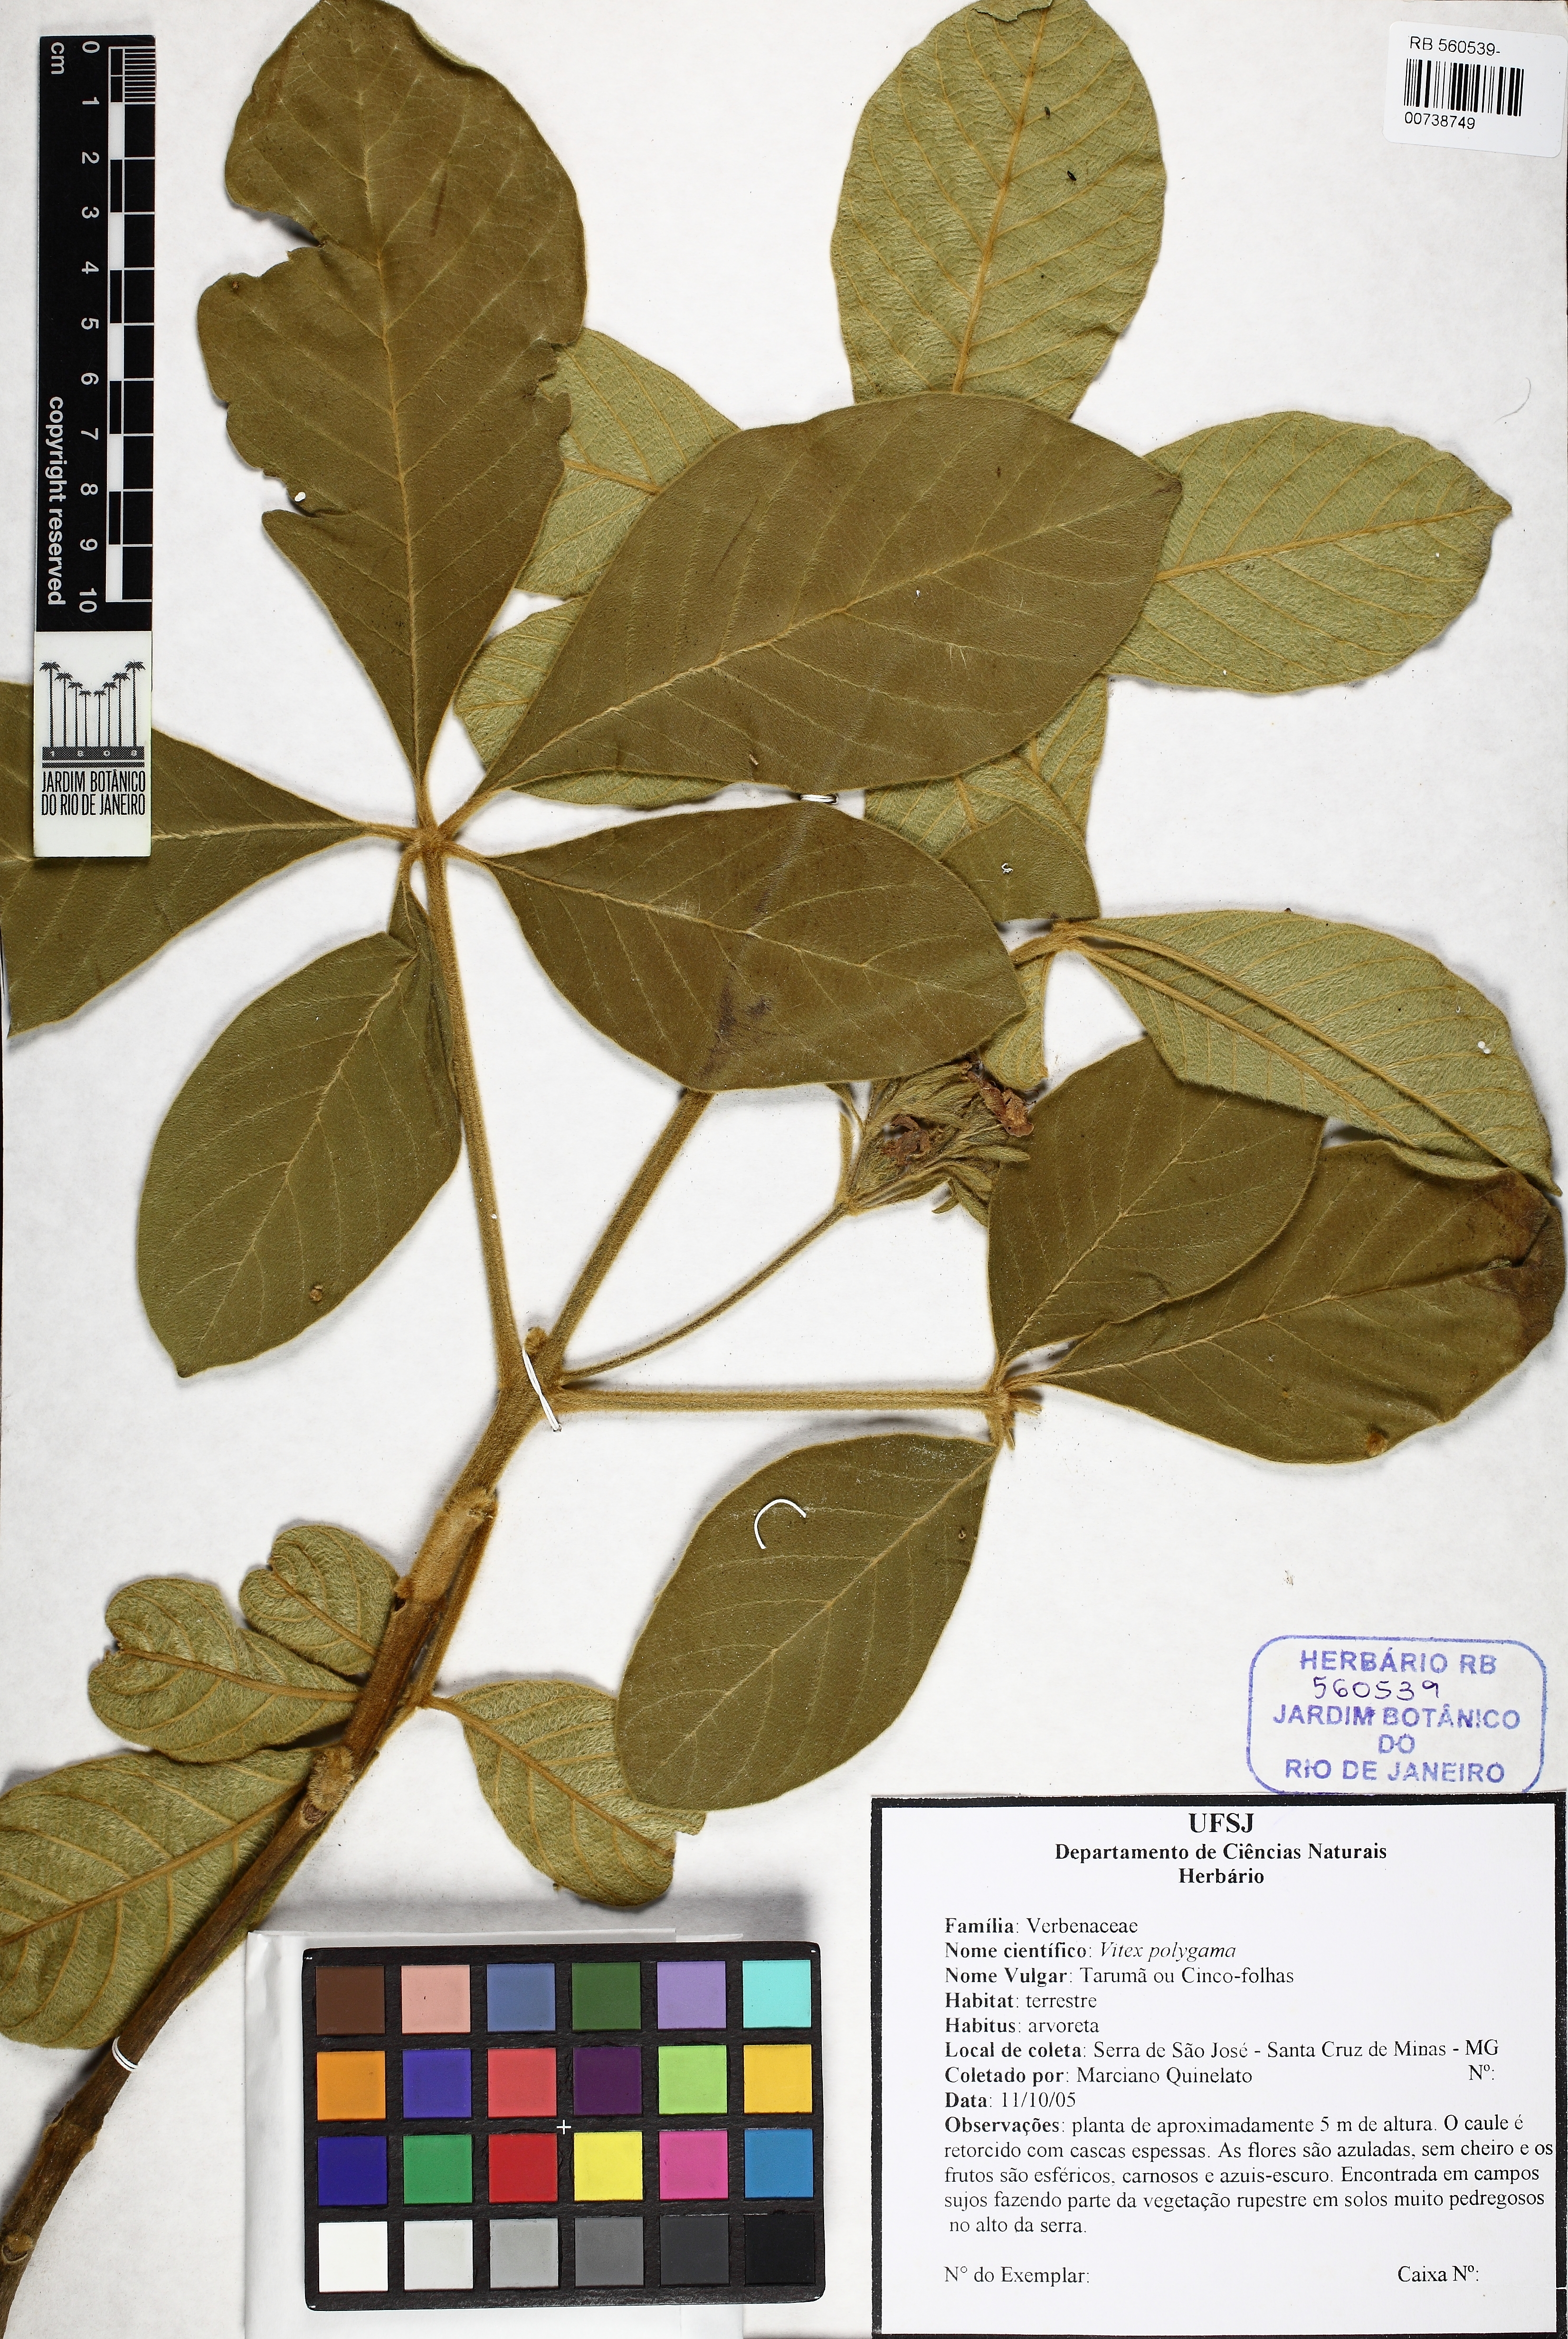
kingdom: Plantae
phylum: Tracheophyta
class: Magnoliopsida
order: Lamiales
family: Lamiaceae
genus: Vitex
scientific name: Vitex polygama
